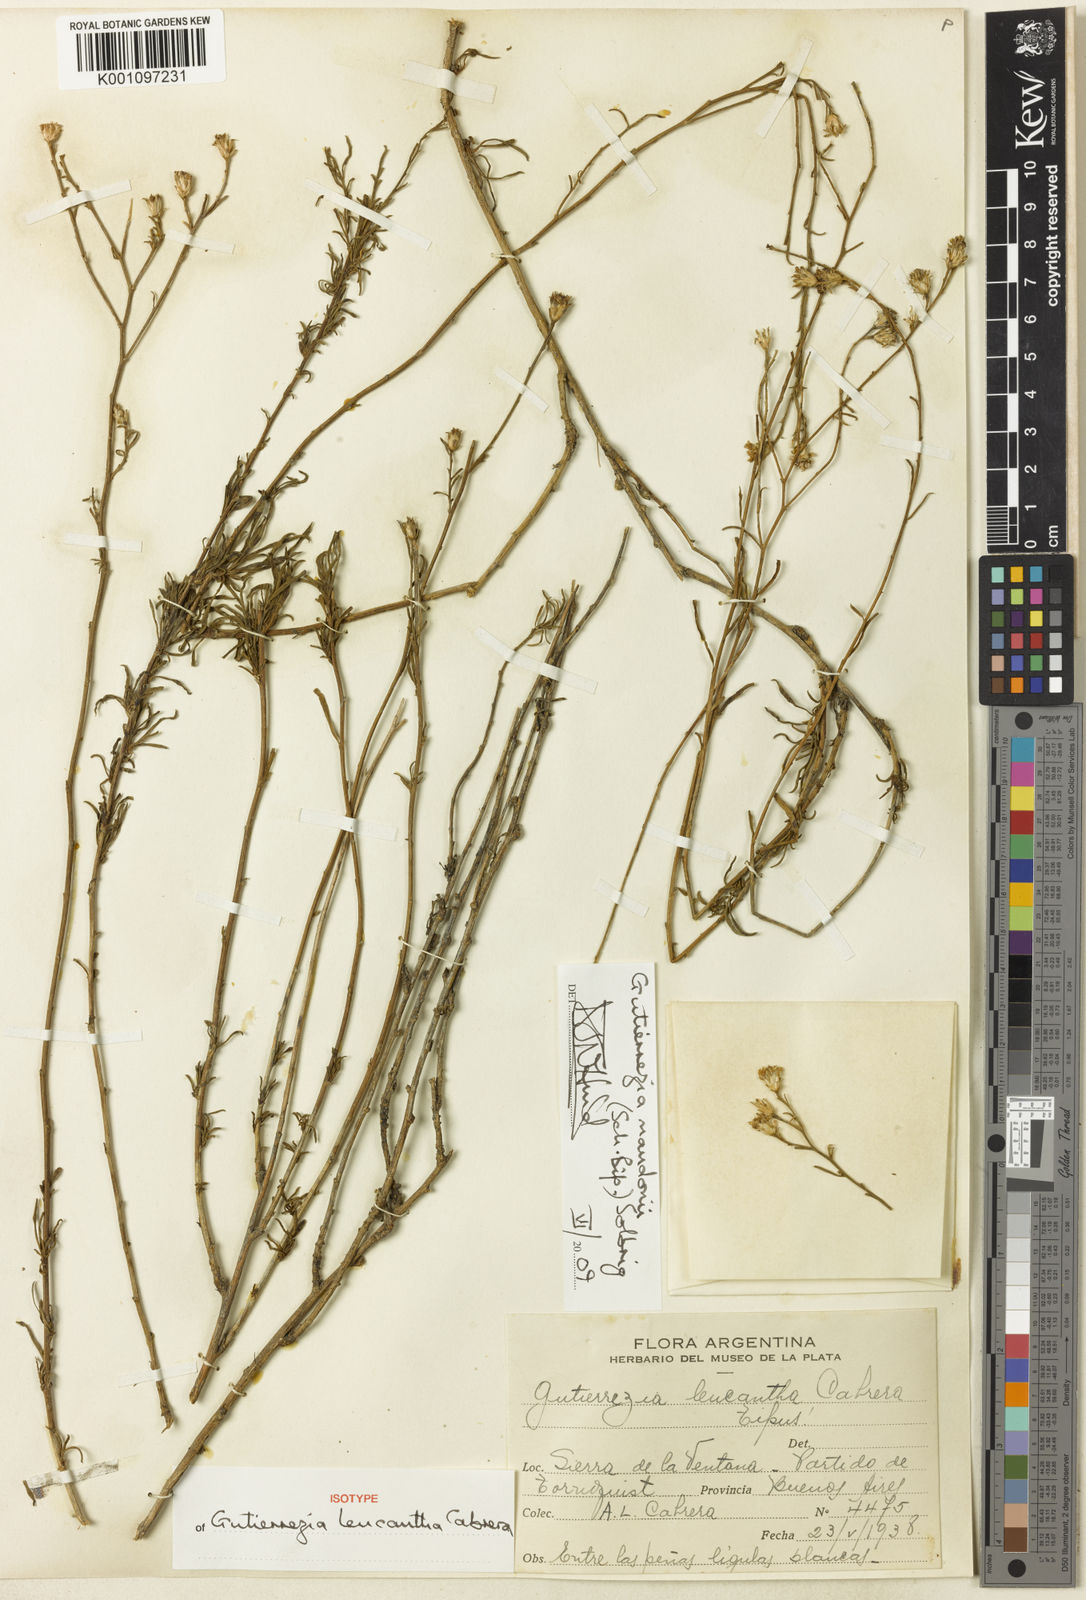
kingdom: Plantae
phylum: Tracheophyta
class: Magnoliopsida
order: Asterales
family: Asteraceae
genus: Gutierrezia
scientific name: Gutierrezia mandonii
